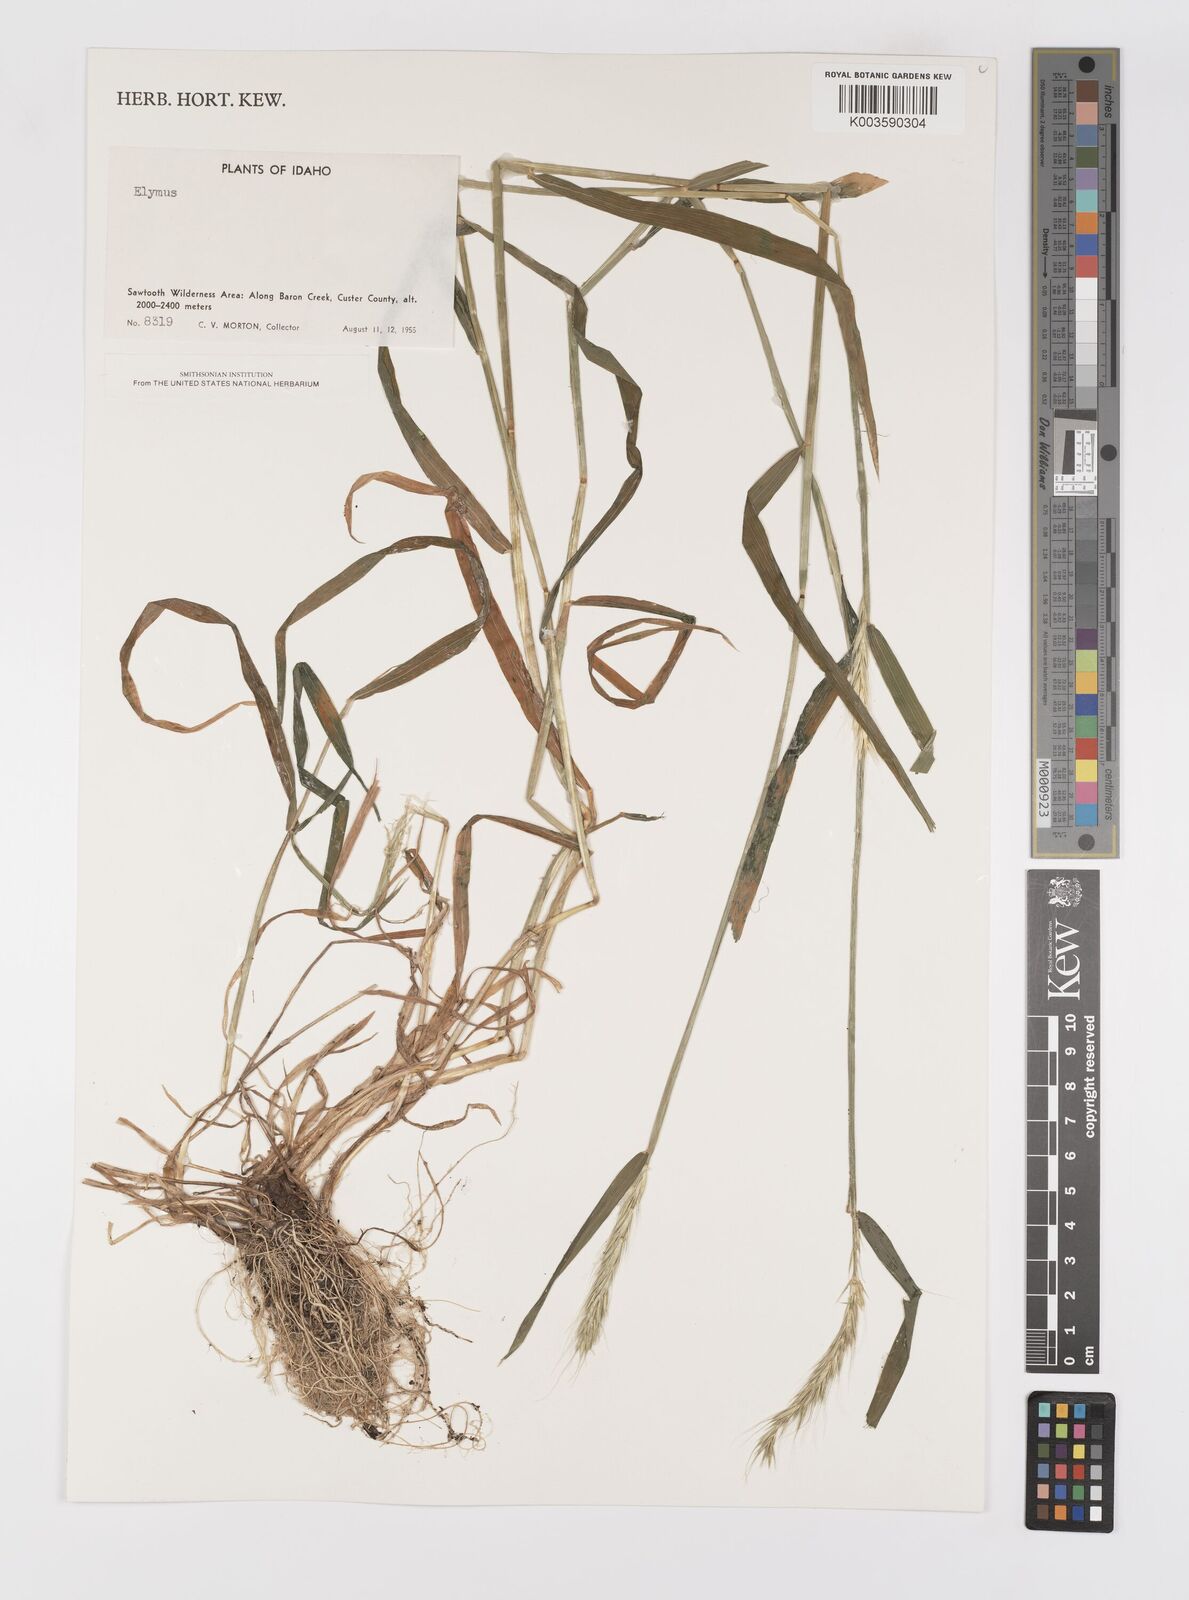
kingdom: Plantae
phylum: Tracheophyta
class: Liliopsida
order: Poales
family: Poaceae
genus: Elymus
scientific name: Elymus
